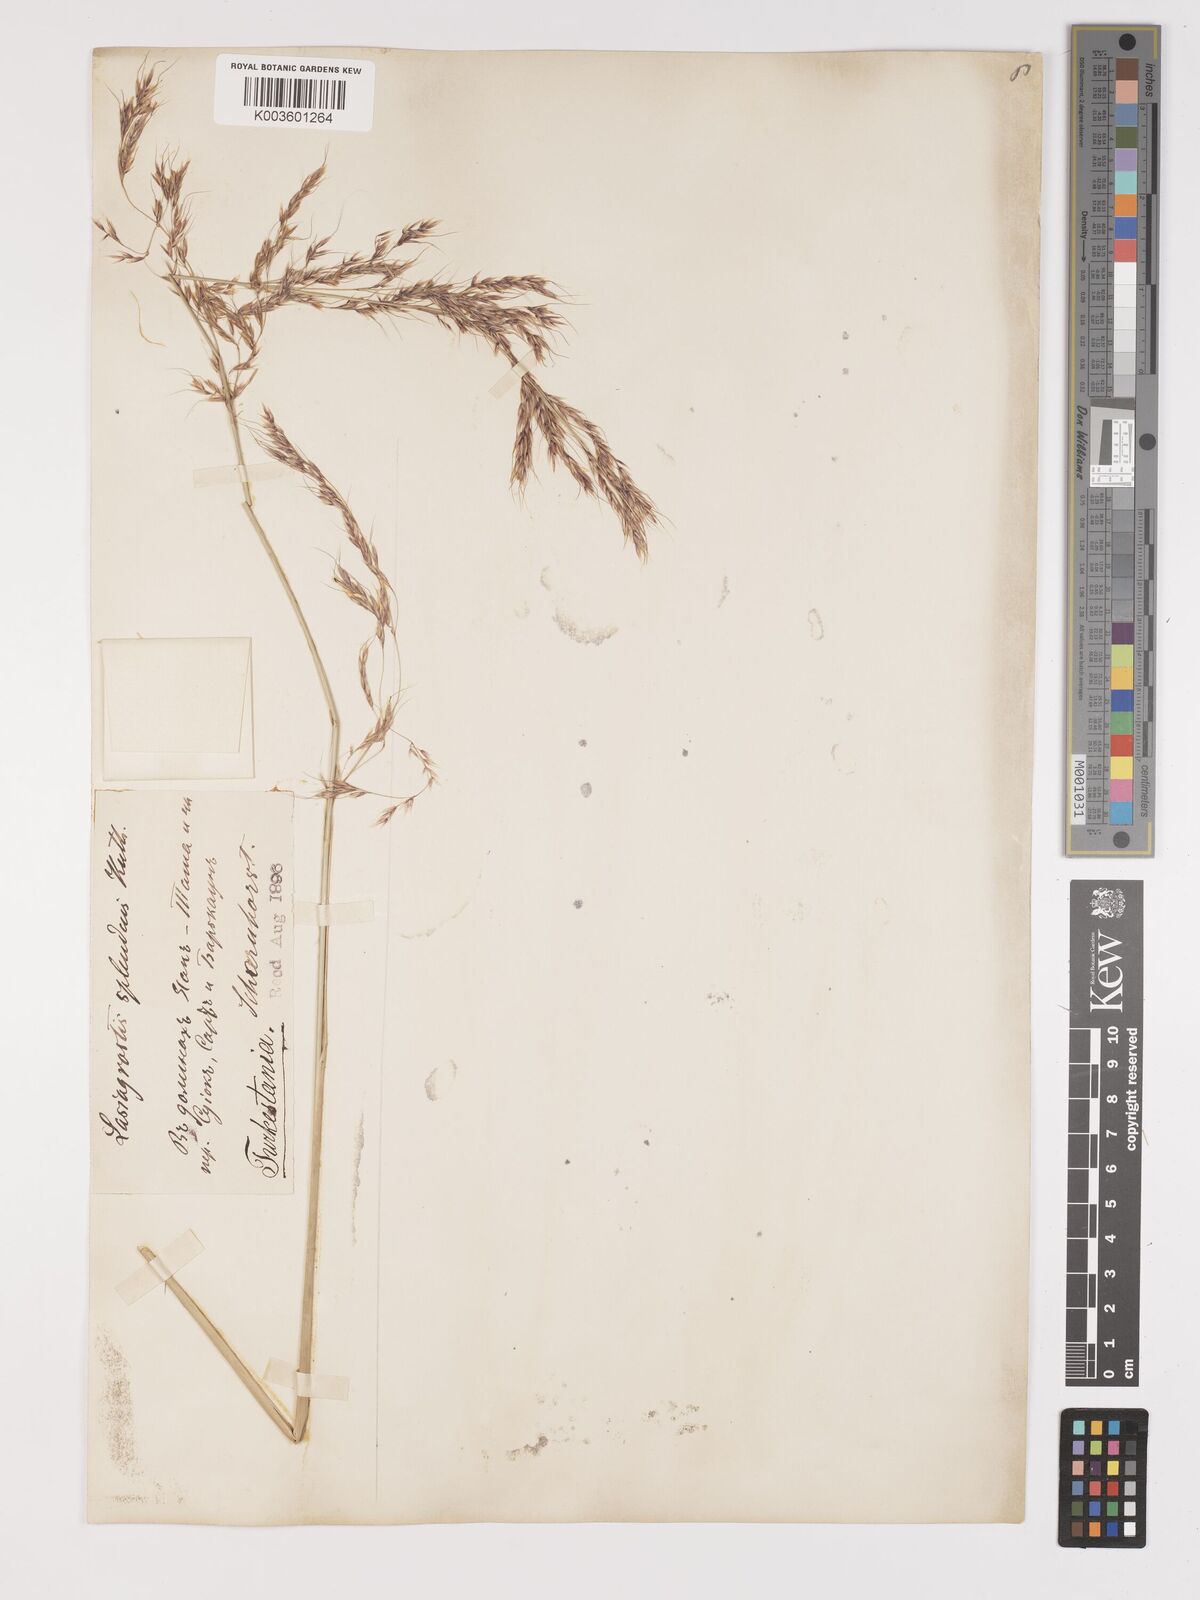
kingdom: Plantae
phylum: Tracheophyta
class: Liliopsida
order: Poales
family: Poaceae
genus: Neotrinia
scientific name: Neotrinia splendens
